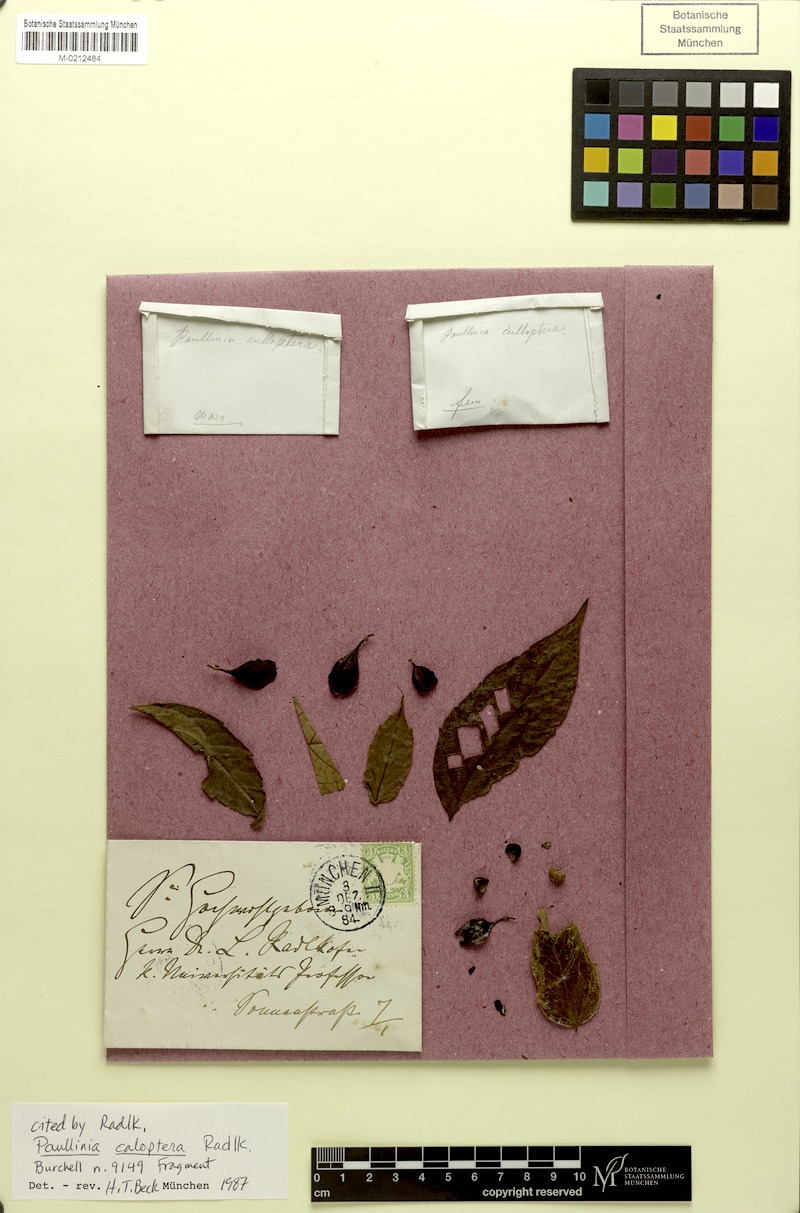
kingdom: Plantae
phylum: Tracheophyta
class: Magnoliopsida
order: Sapindales
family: Sapindaceae
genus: Paullinia
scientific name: Paullinia caloptera
